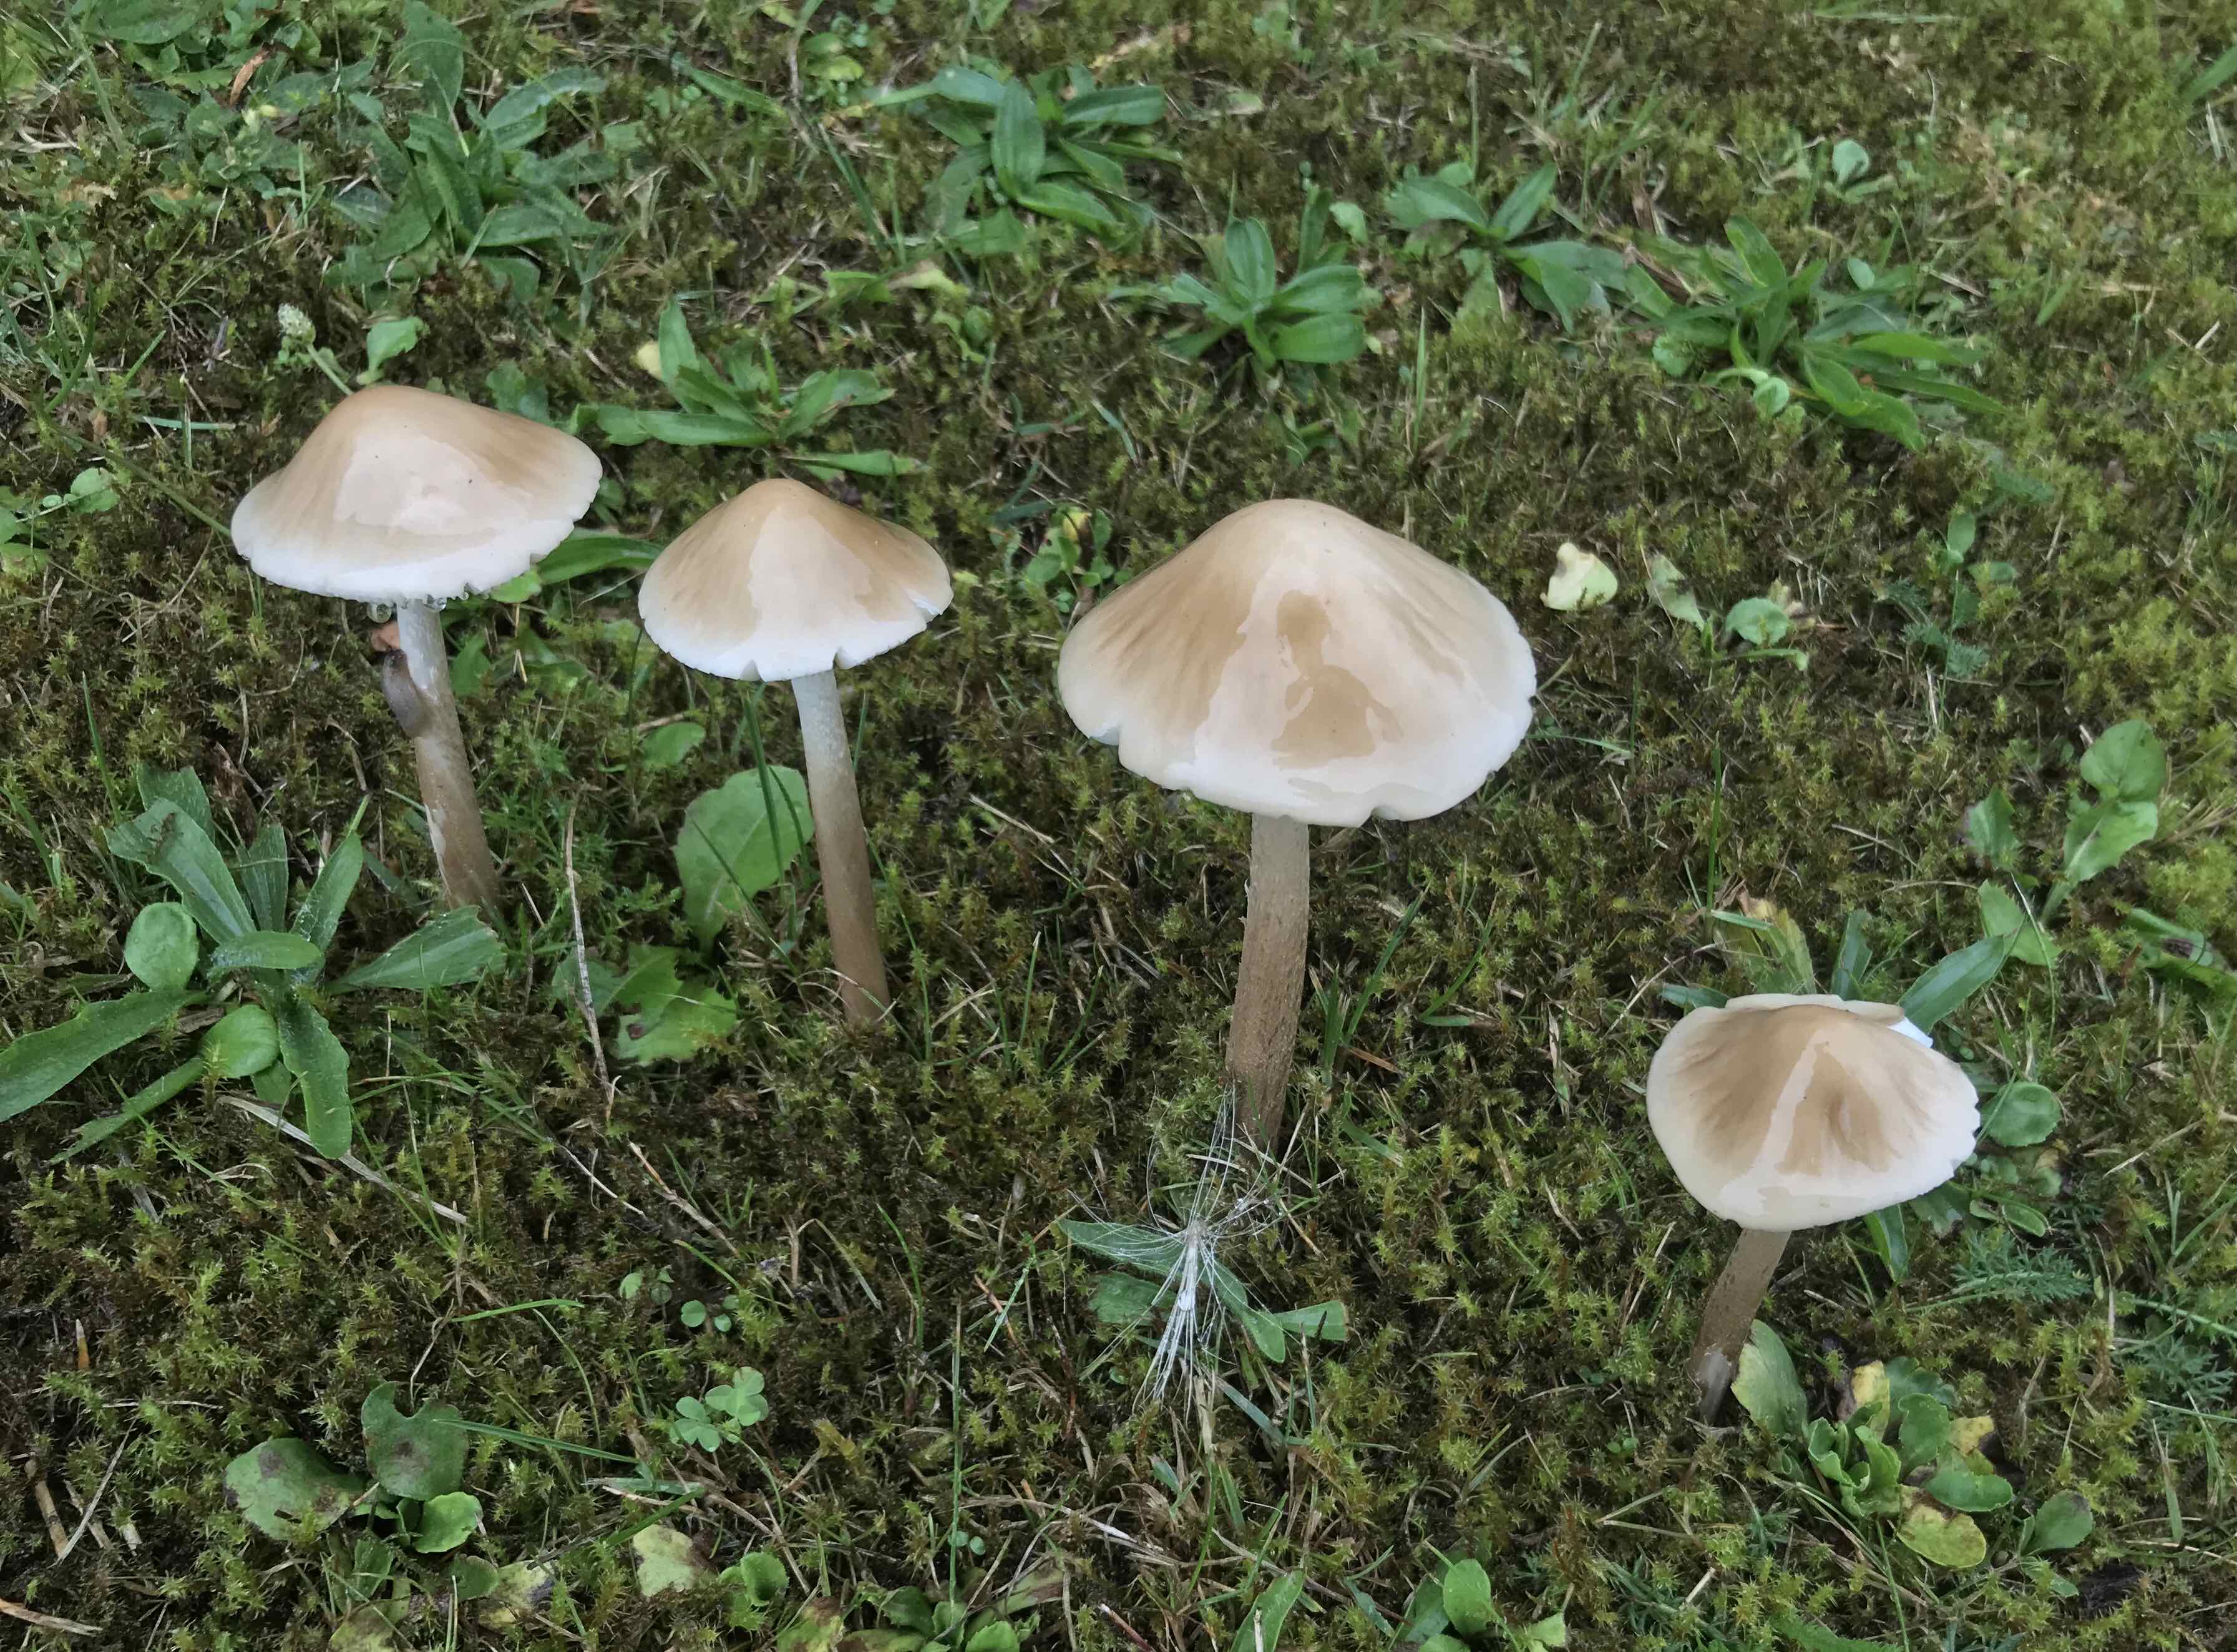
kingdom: Fungi
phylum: Basidiomycota
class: Agaricomycetes
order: Agaricales
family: Physalacriaceae
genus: Hymenopellis
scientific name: Hymenopellis radicata
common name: almindelig pælerodshat
